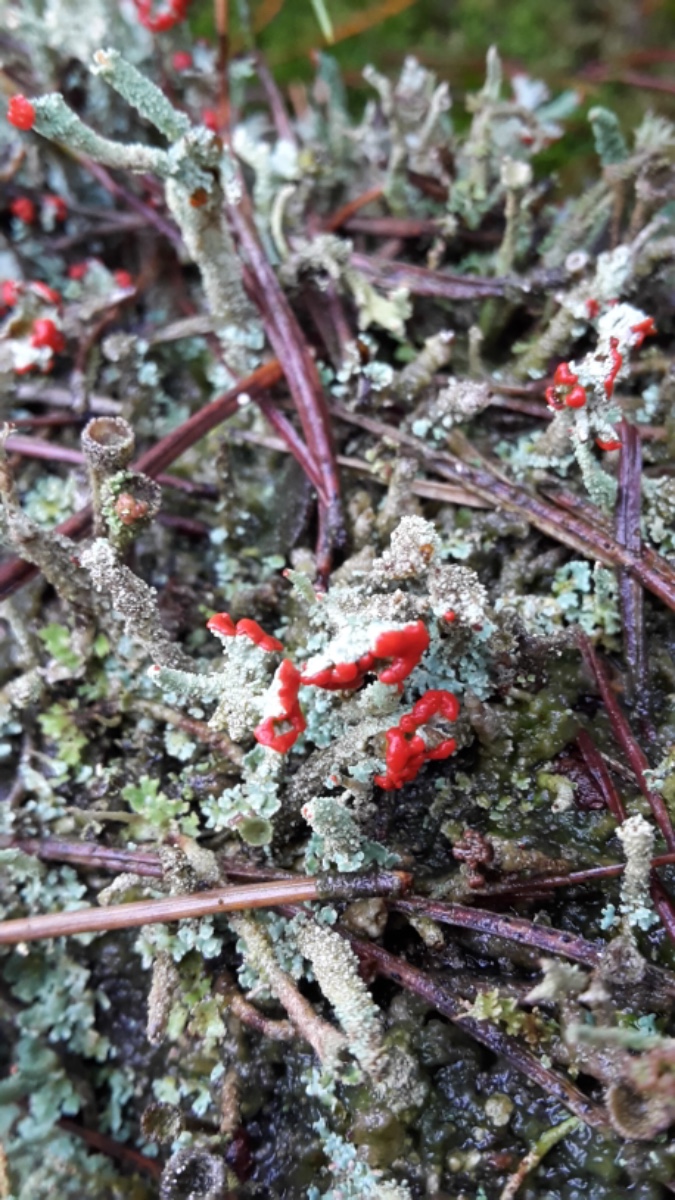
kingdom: Fungi
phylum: Ascomycota
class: Lecanoromycetes
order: Lecanorales
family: Cladoniaceae
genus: Cladonia
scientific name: Cladonia floerkeana
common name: lakrød bægerlav
